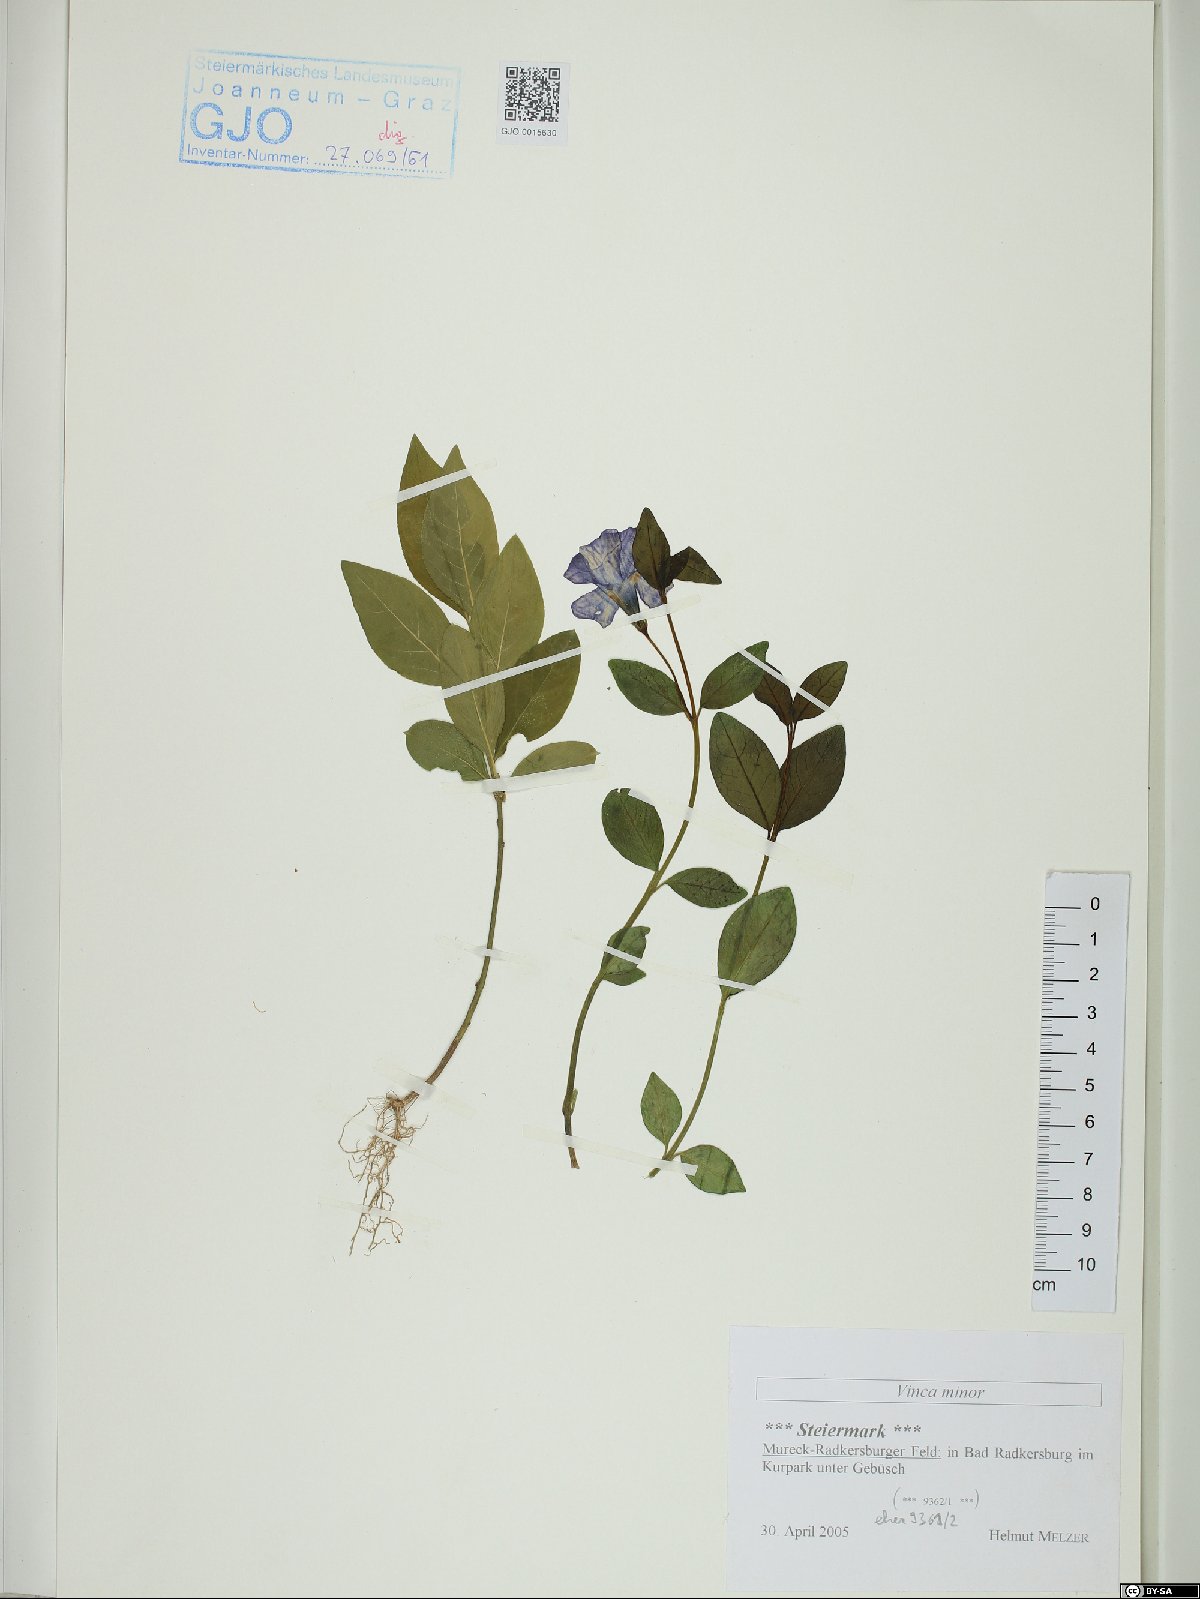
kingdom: Plantae
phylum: Tracheophyta
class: Magnoliopsida
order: Gentianales
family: Apocynaceae
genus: Vinca
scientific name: Vinca minor
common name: Lesser periwinkle
